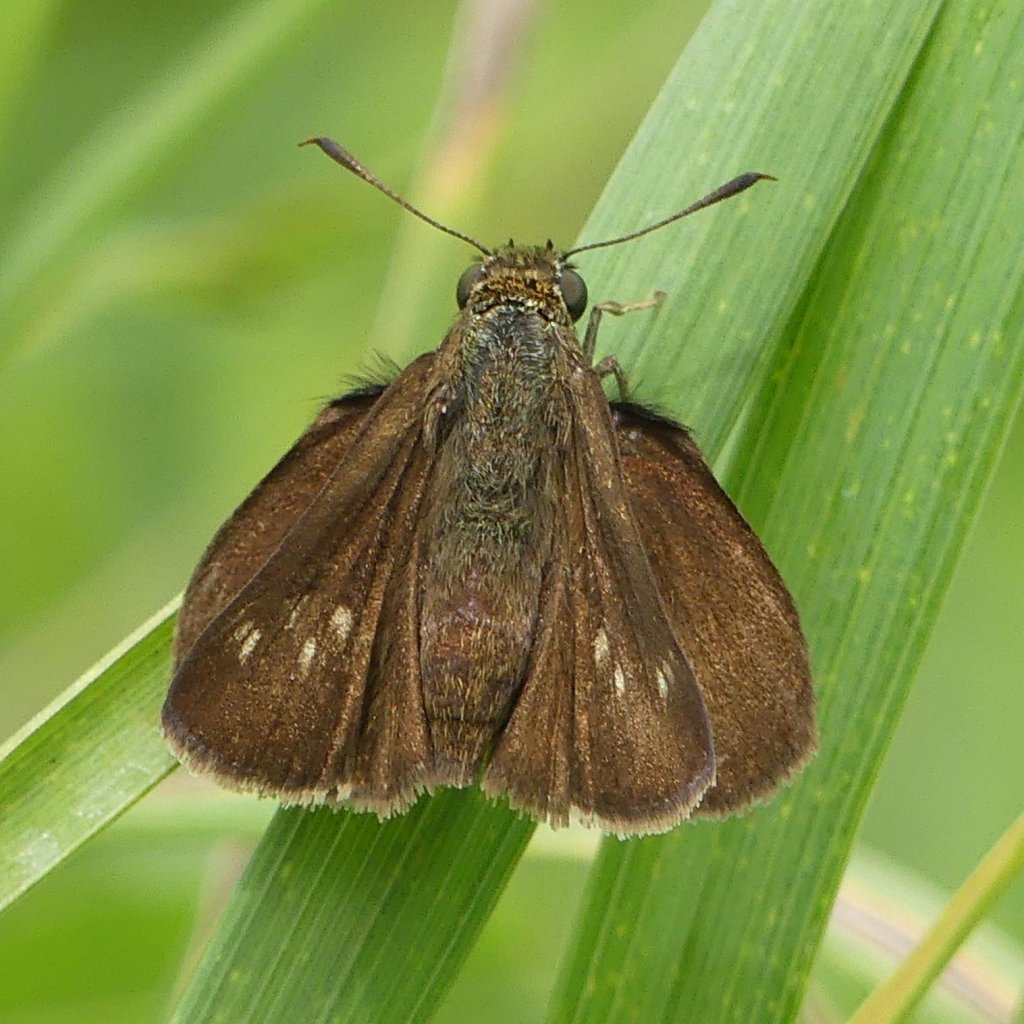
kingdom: Animalia
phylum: Arthropoda
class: Insecta
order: Lepidoptera
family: Hesperiidae
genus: Euphyes
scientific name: Euphyes vestris
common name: Dun Skipper
